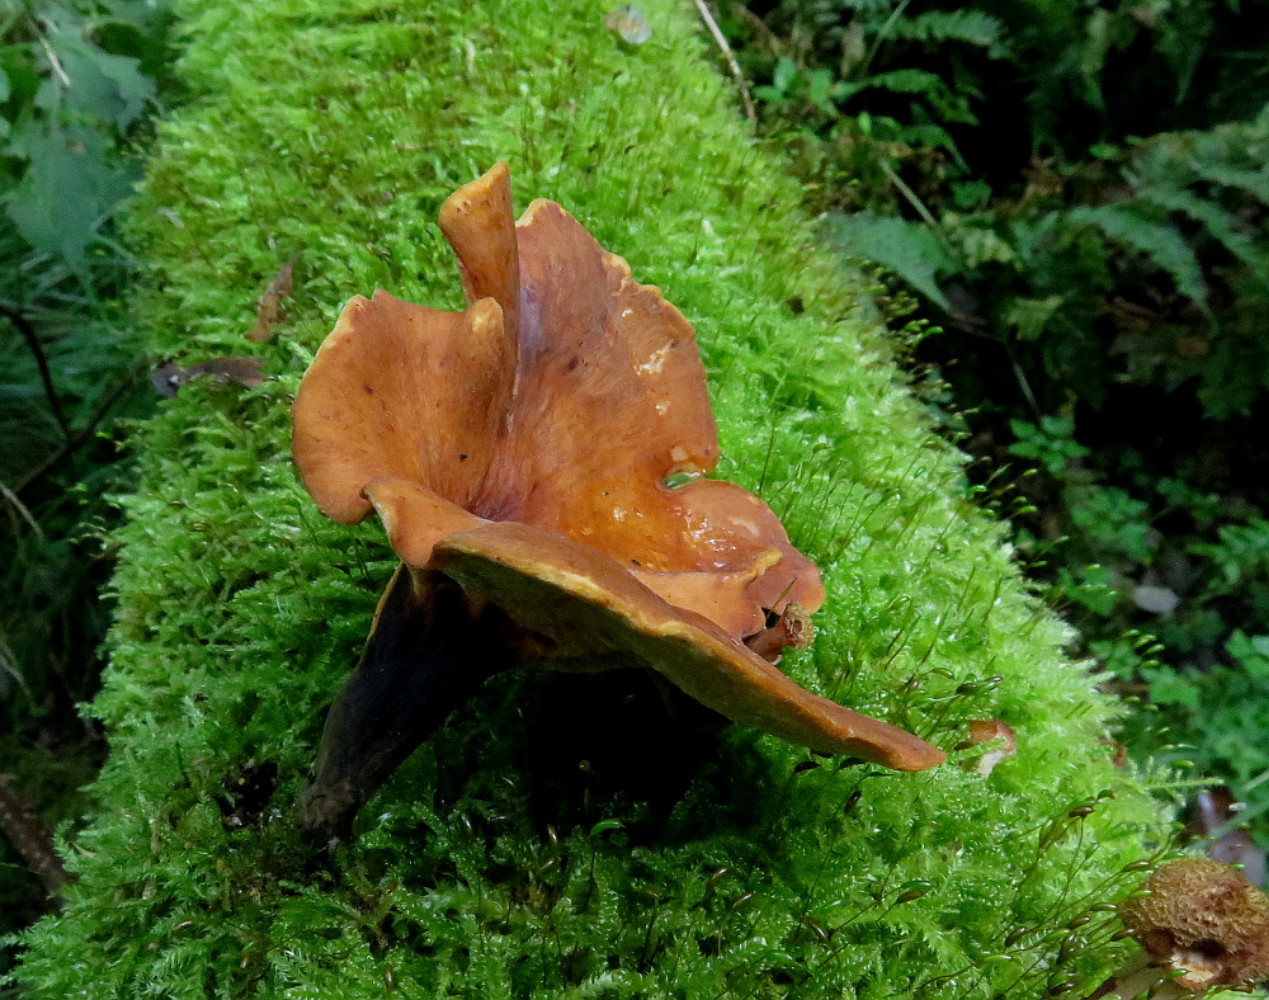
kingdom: Fungi
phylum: Basidiomycota
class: Agaricomycetes
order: Polyporales
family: Polyporaceae
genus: Picipes
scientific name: Picipes tubaeformis
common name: trompet-stilkporesvamp
